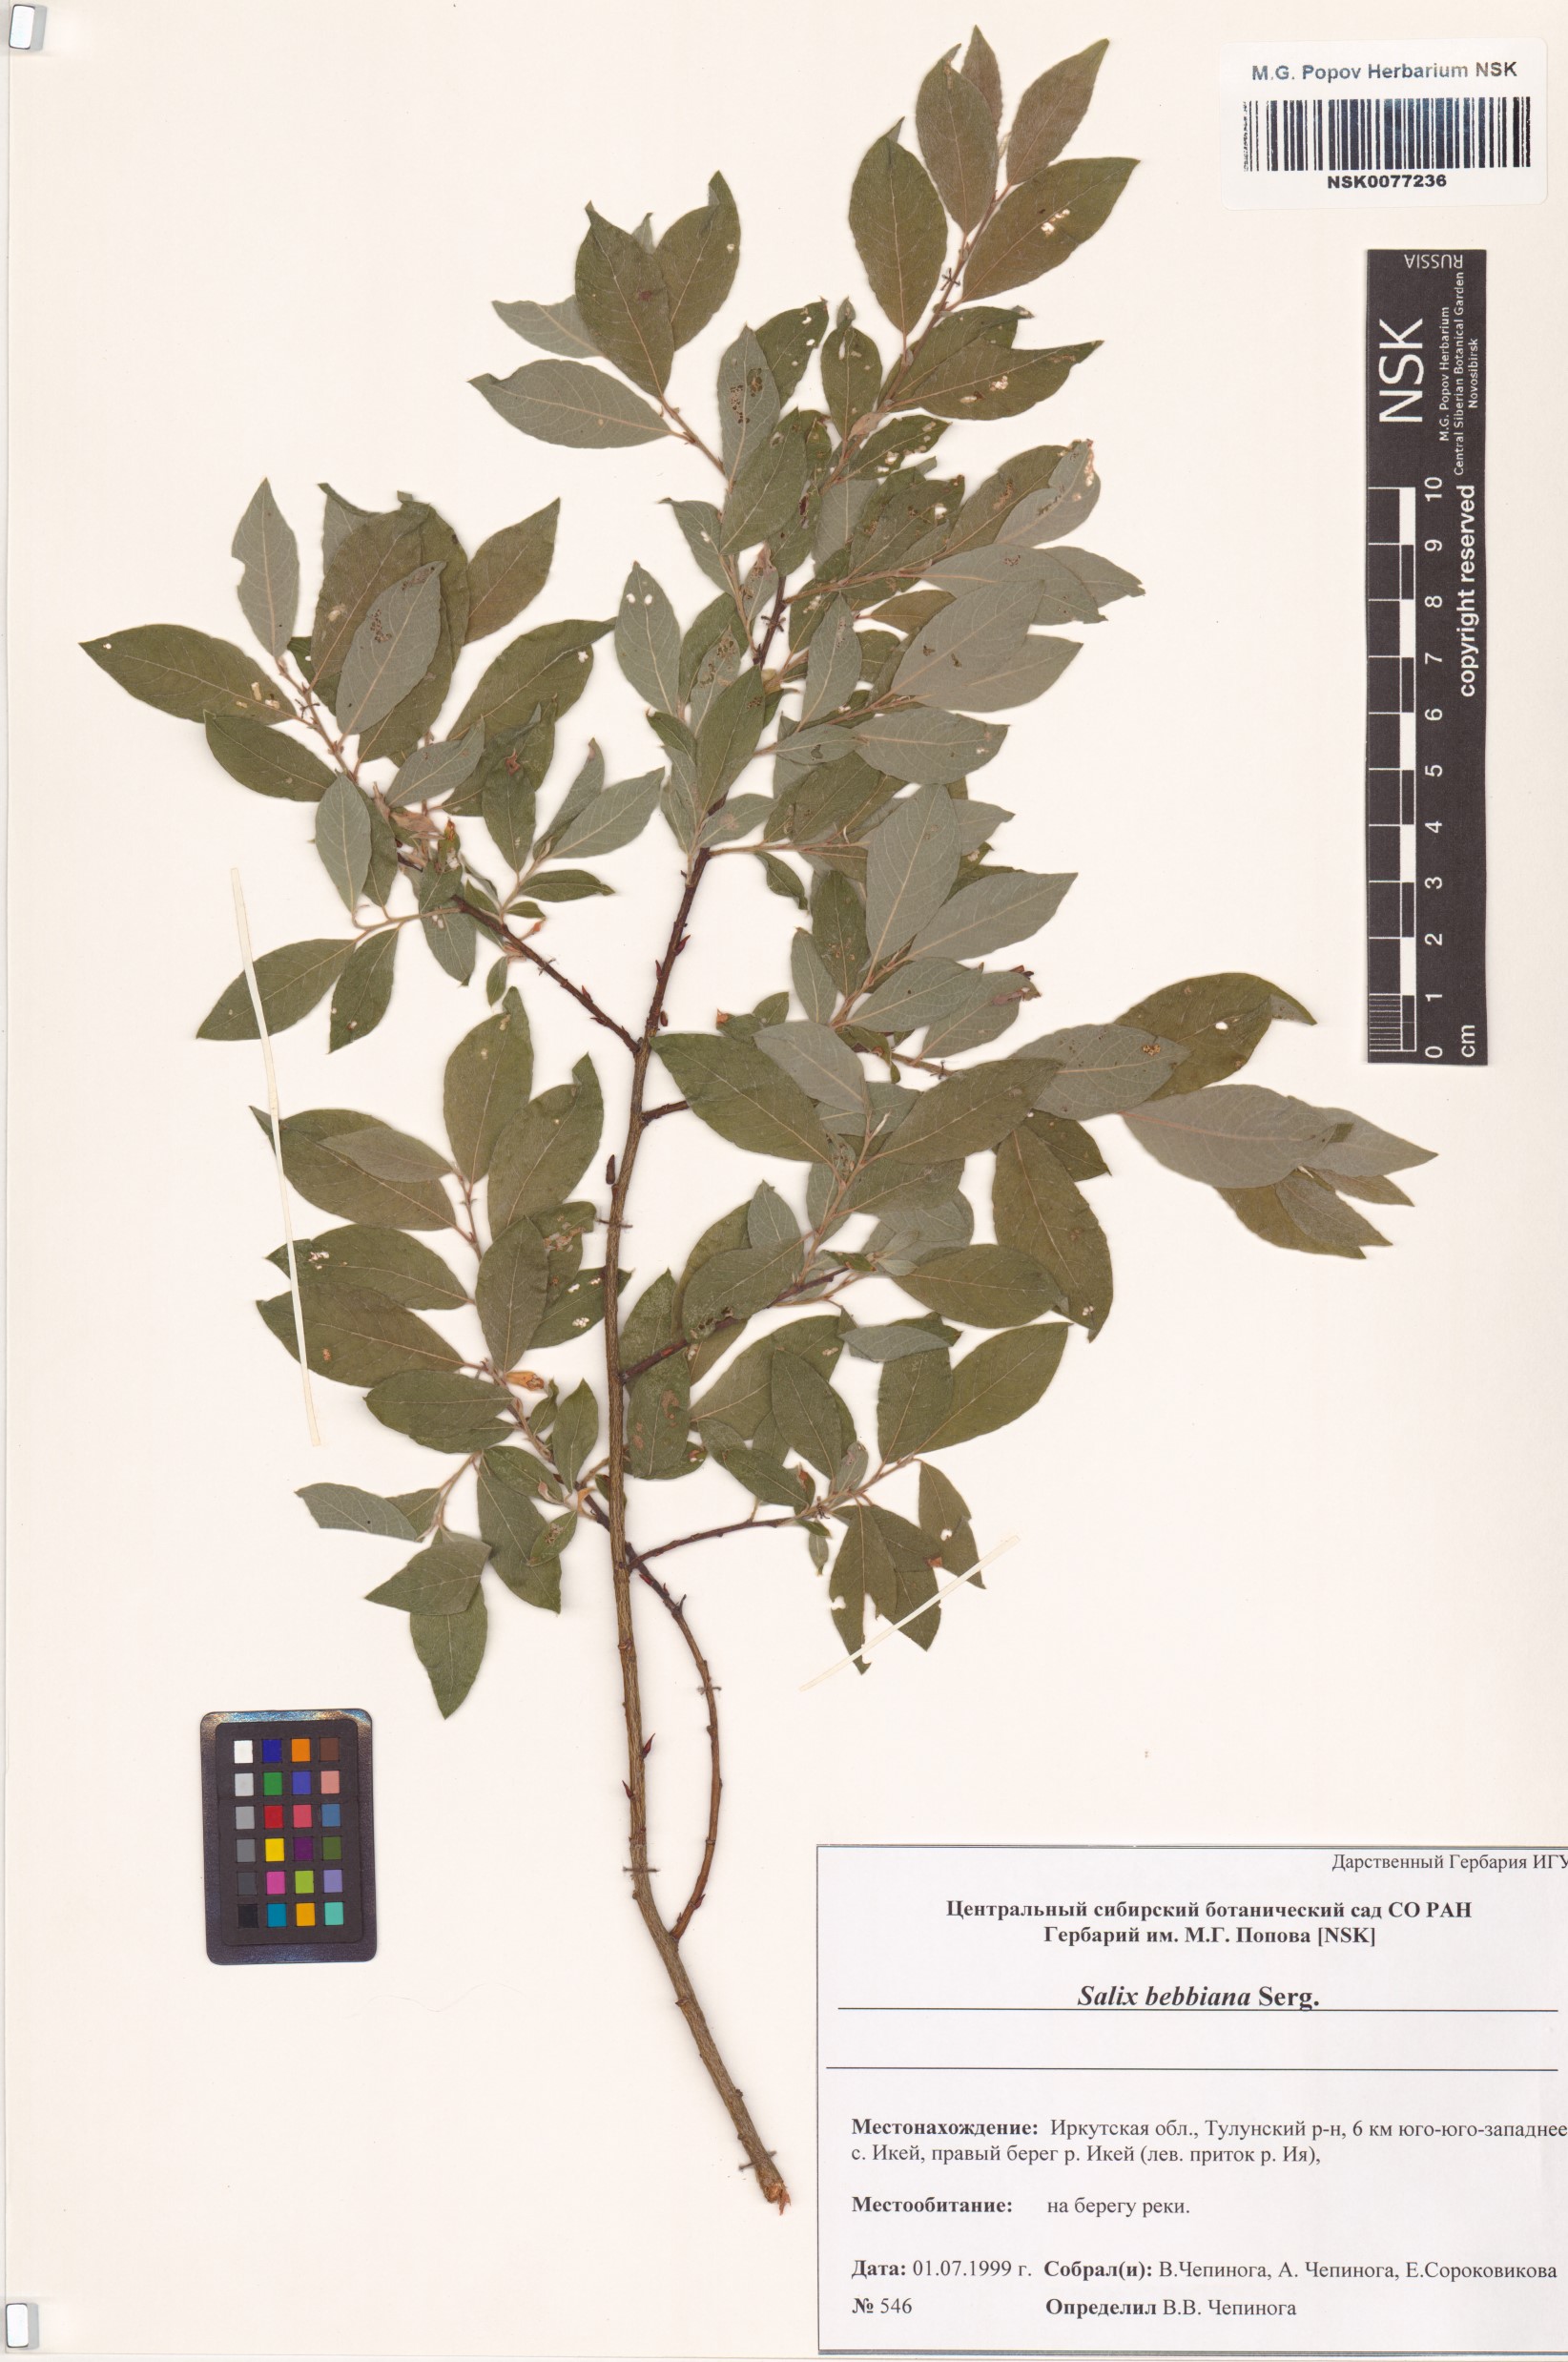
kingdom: Plantae
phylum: Tracheophyta
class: Magnoliopsida
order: Malpighiales
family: Salicaceae
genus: Salix
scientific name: Salix bebbiana
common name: Bebb's willow
